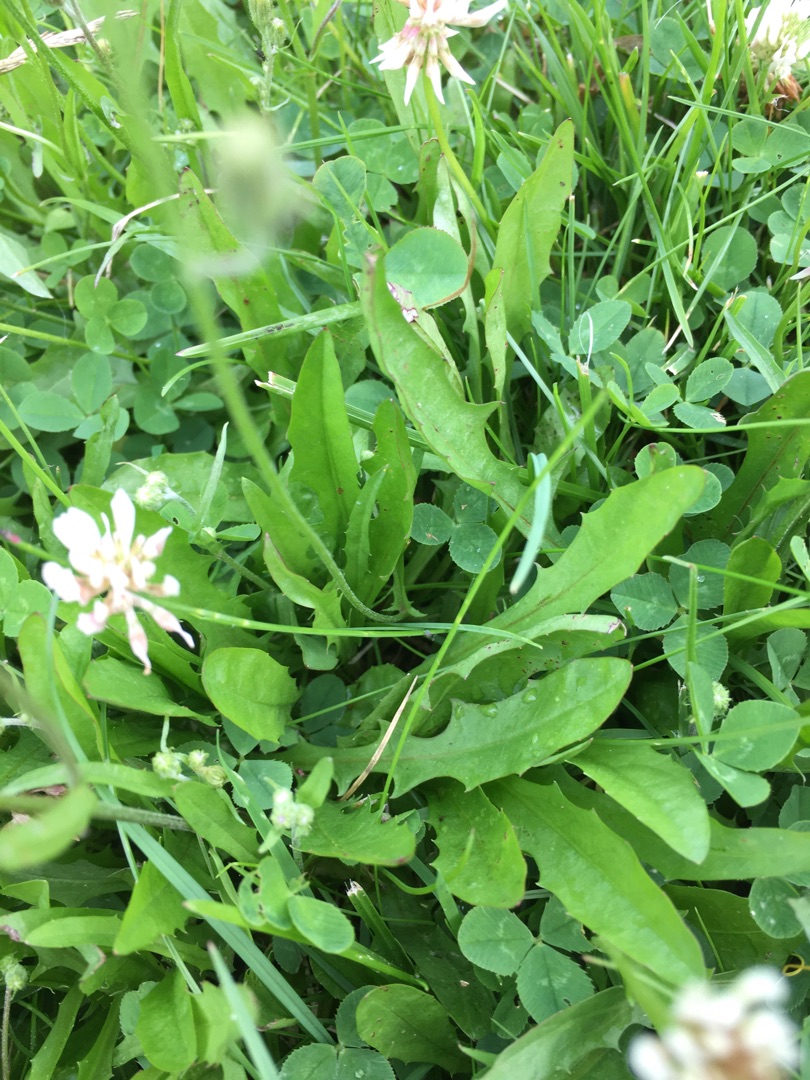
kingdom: Plantae
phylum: Tracheophyta
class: Magnoliopsida
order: Asterales
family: Asteraceae
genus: Crepis
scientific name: Crepis capillaris
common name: Grøn høgeskæg
